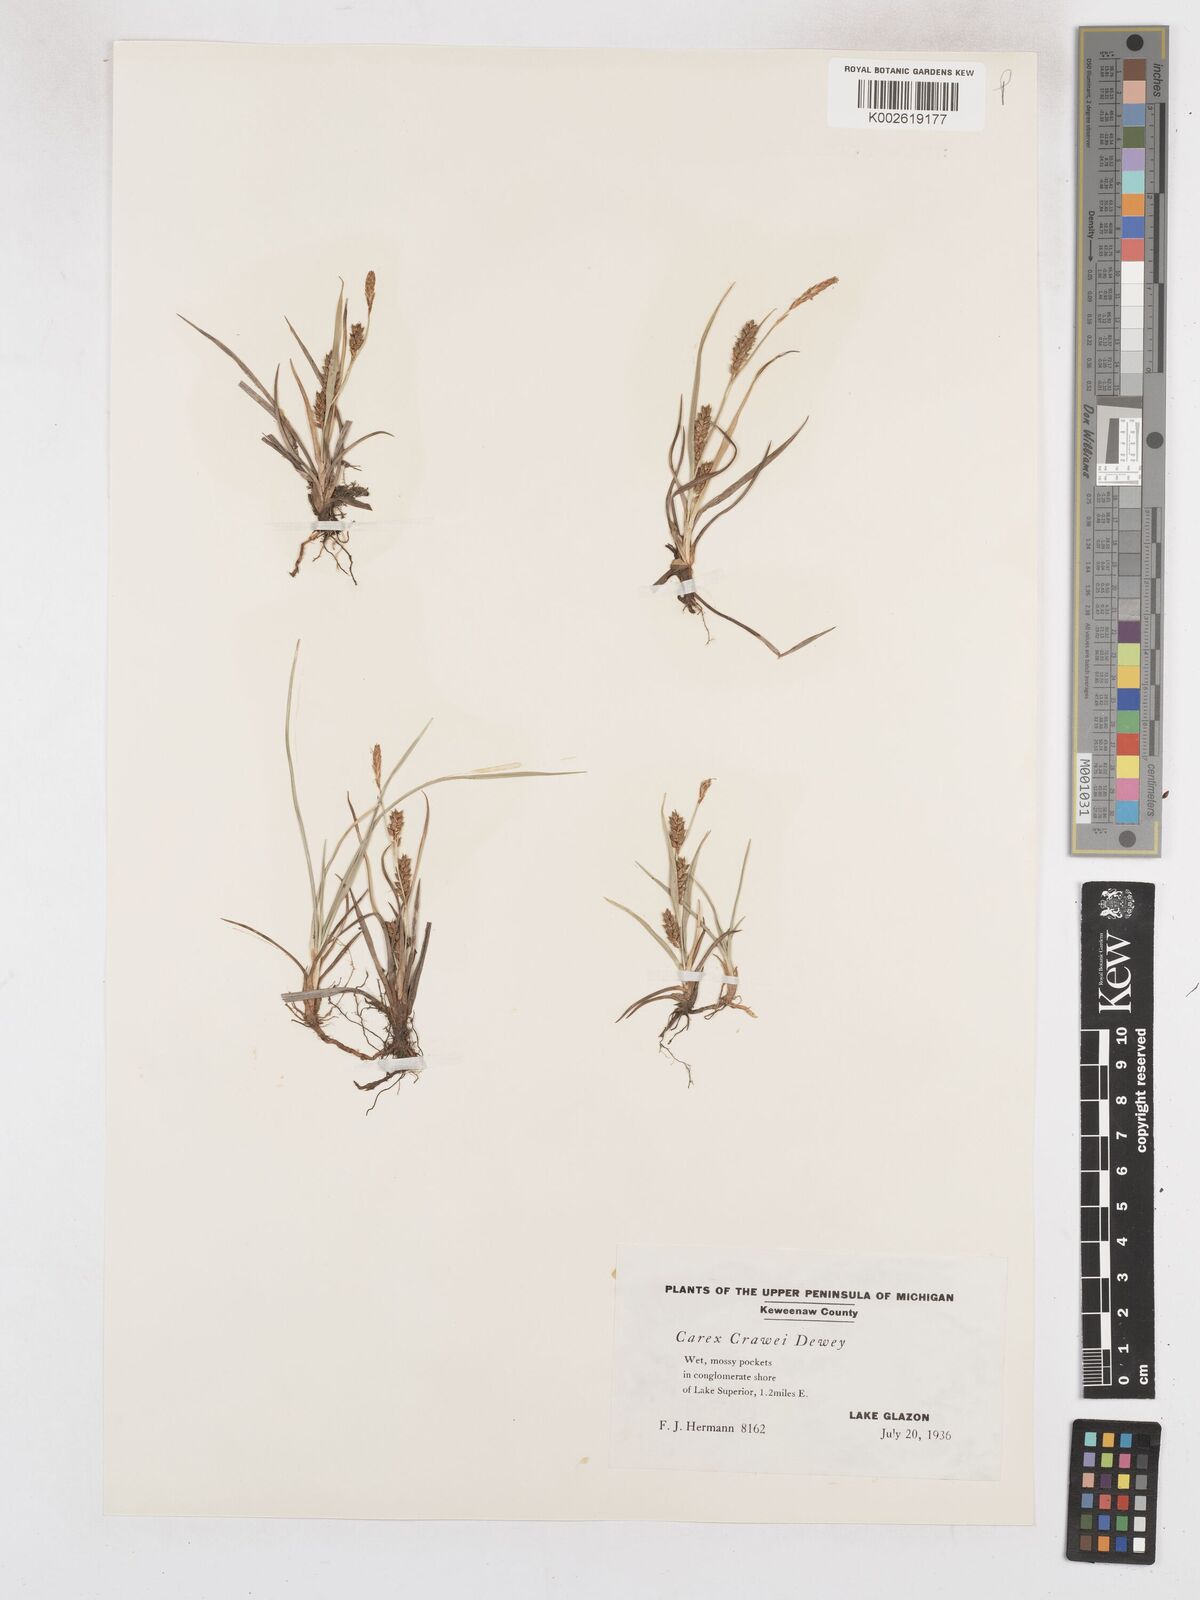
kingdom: Plantae
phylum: Tracheophyta
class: Liliopsida
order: Poales
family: Cyperaceae
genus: Carex
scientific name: Carex crawei
